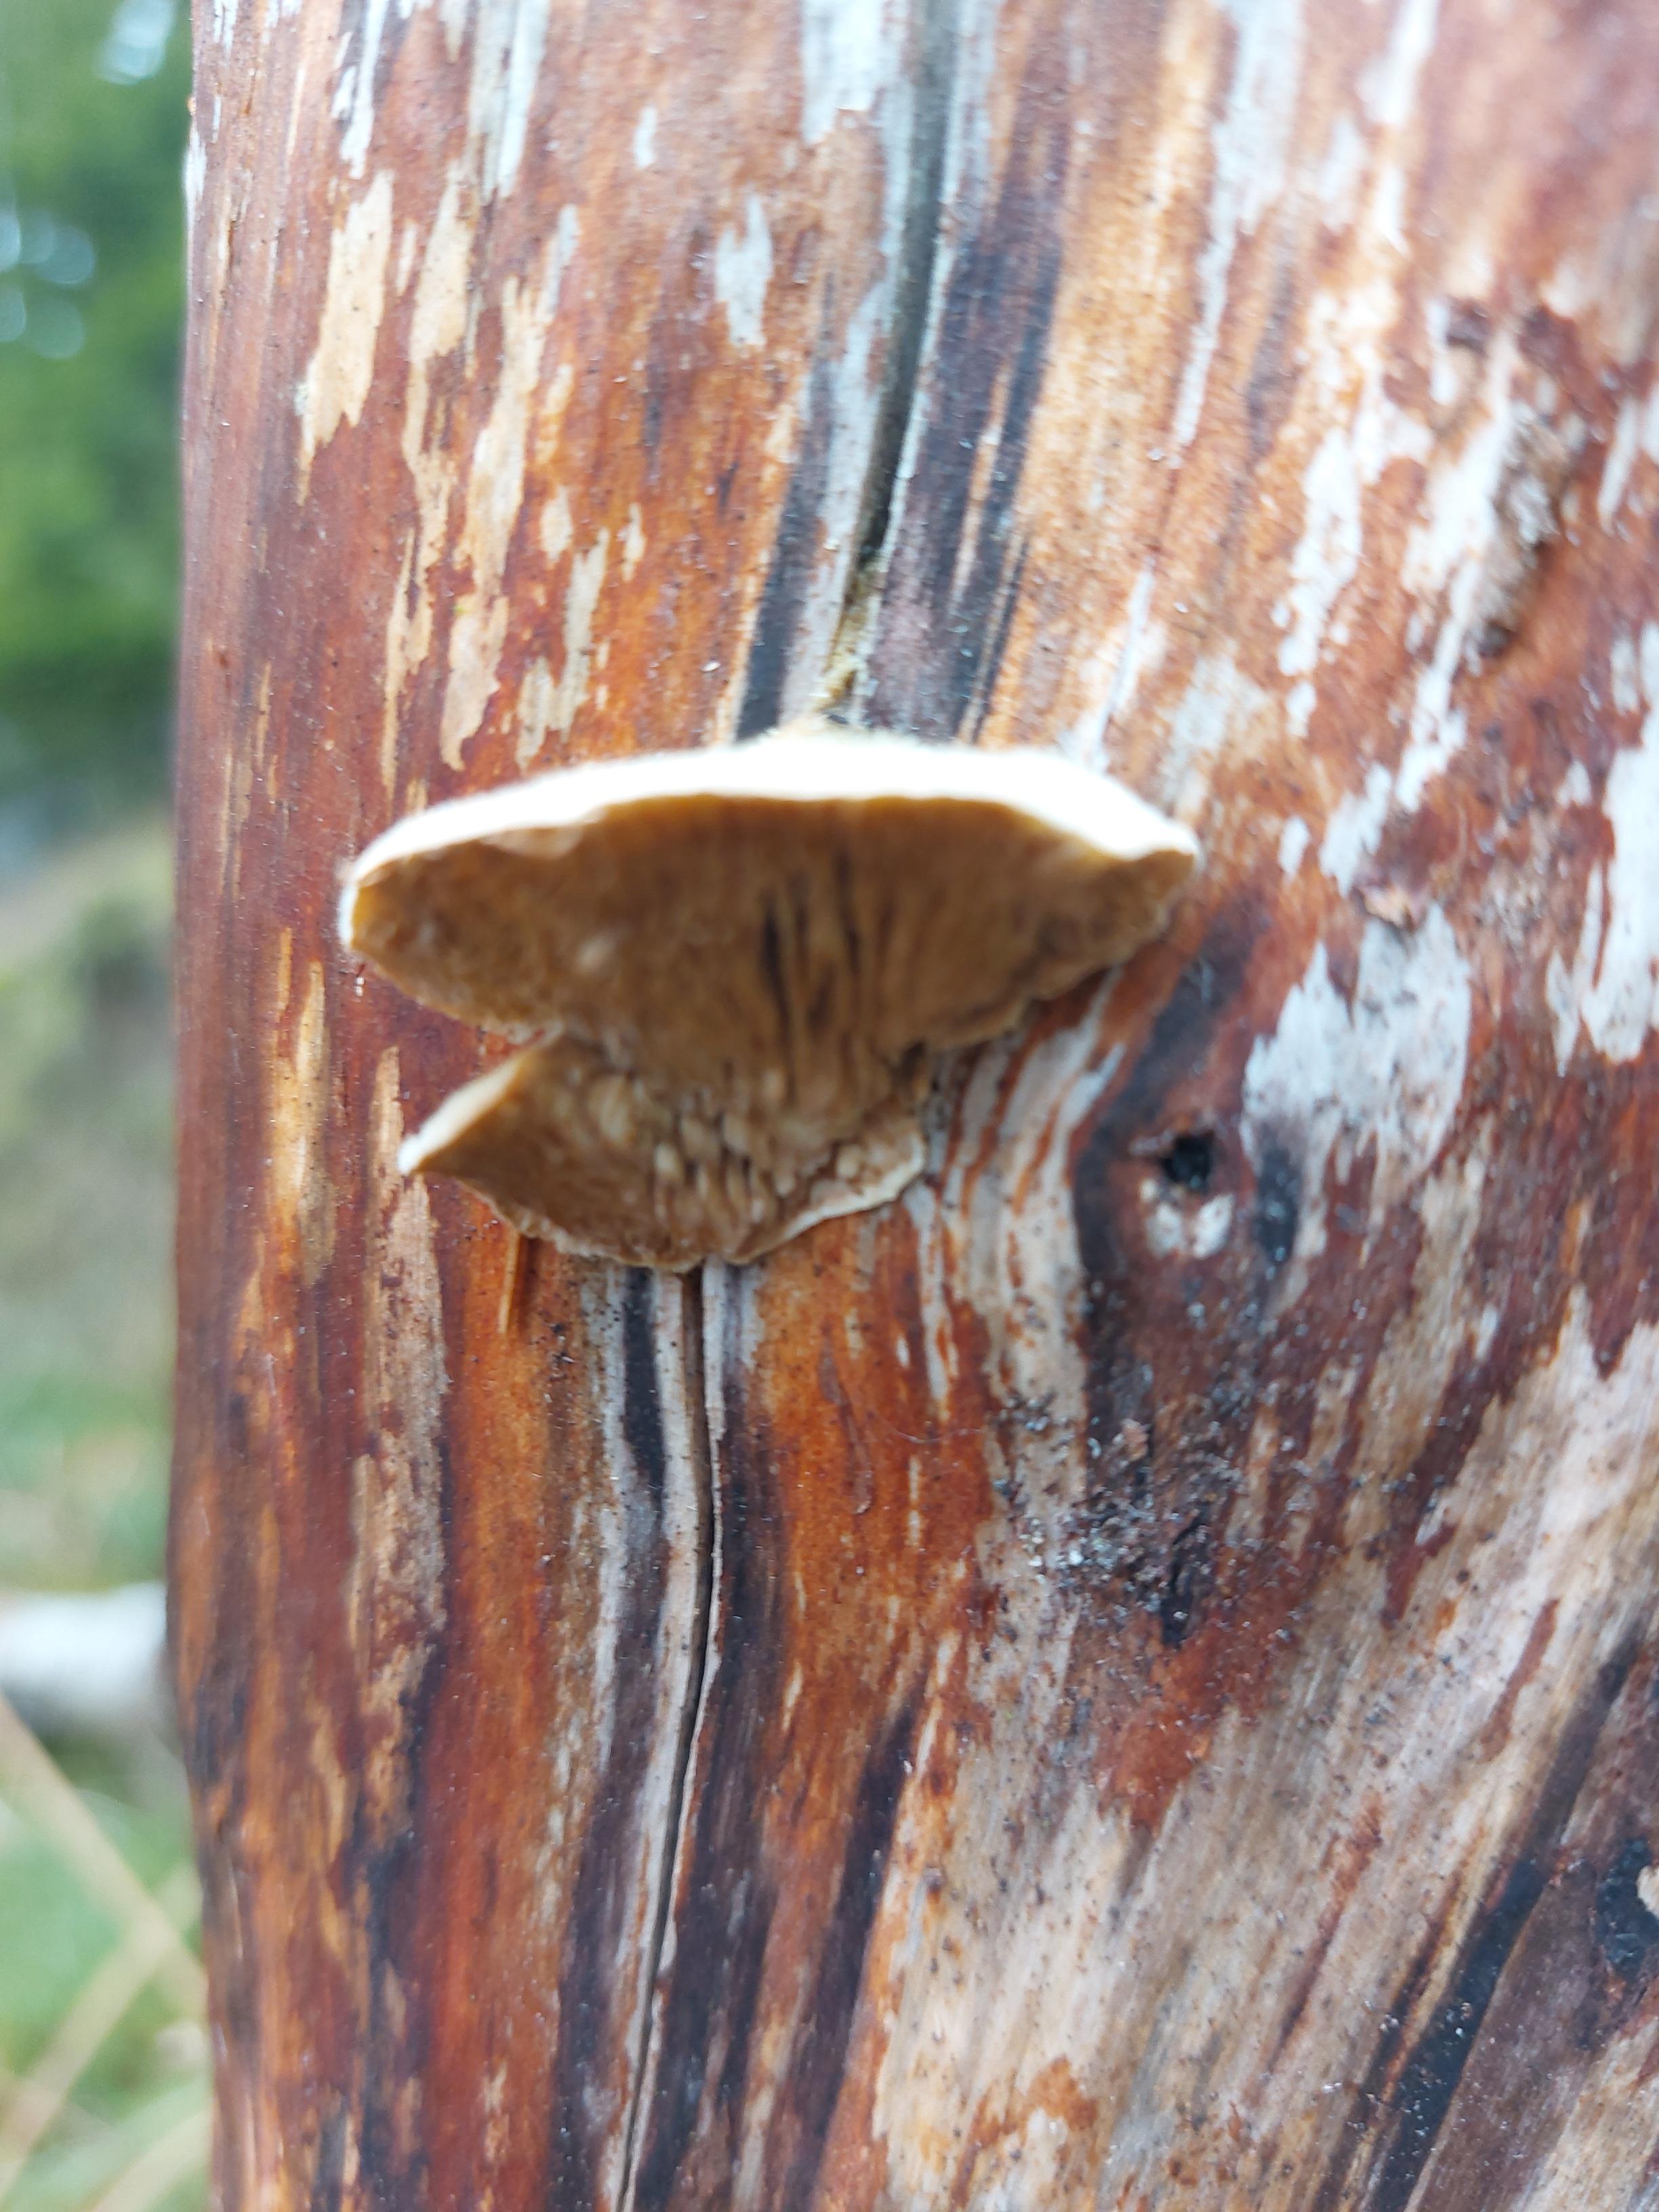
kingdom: Fungi
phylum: Basidiomycota
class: Agaricomycetes
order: Polyporales
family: Polyporaceae
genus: Lenzites
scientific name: Lenzites betulinus
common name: birke-læderporesvamp
